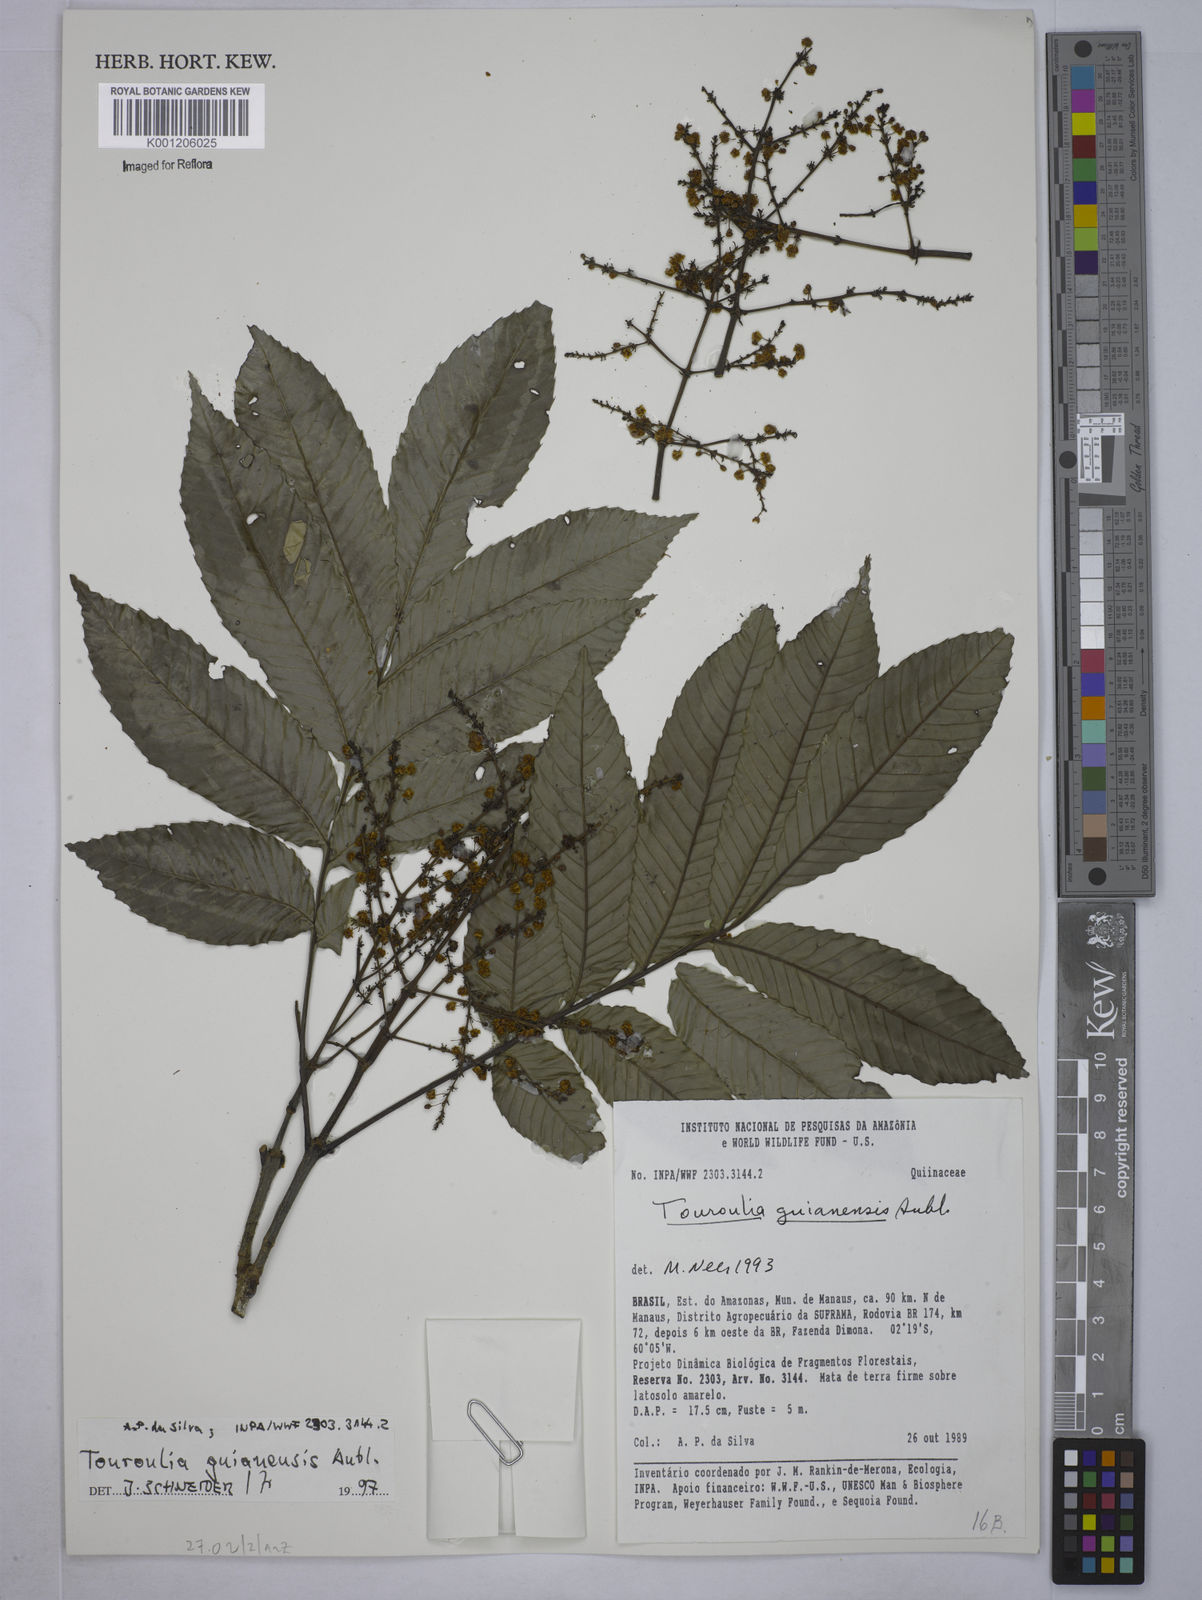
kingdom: Plantae
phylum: Tracheophyta
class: Magnoliopsida
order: Malpighiales
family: Quiinaceae
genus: Touroulia
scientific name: Touroulia guianensis
